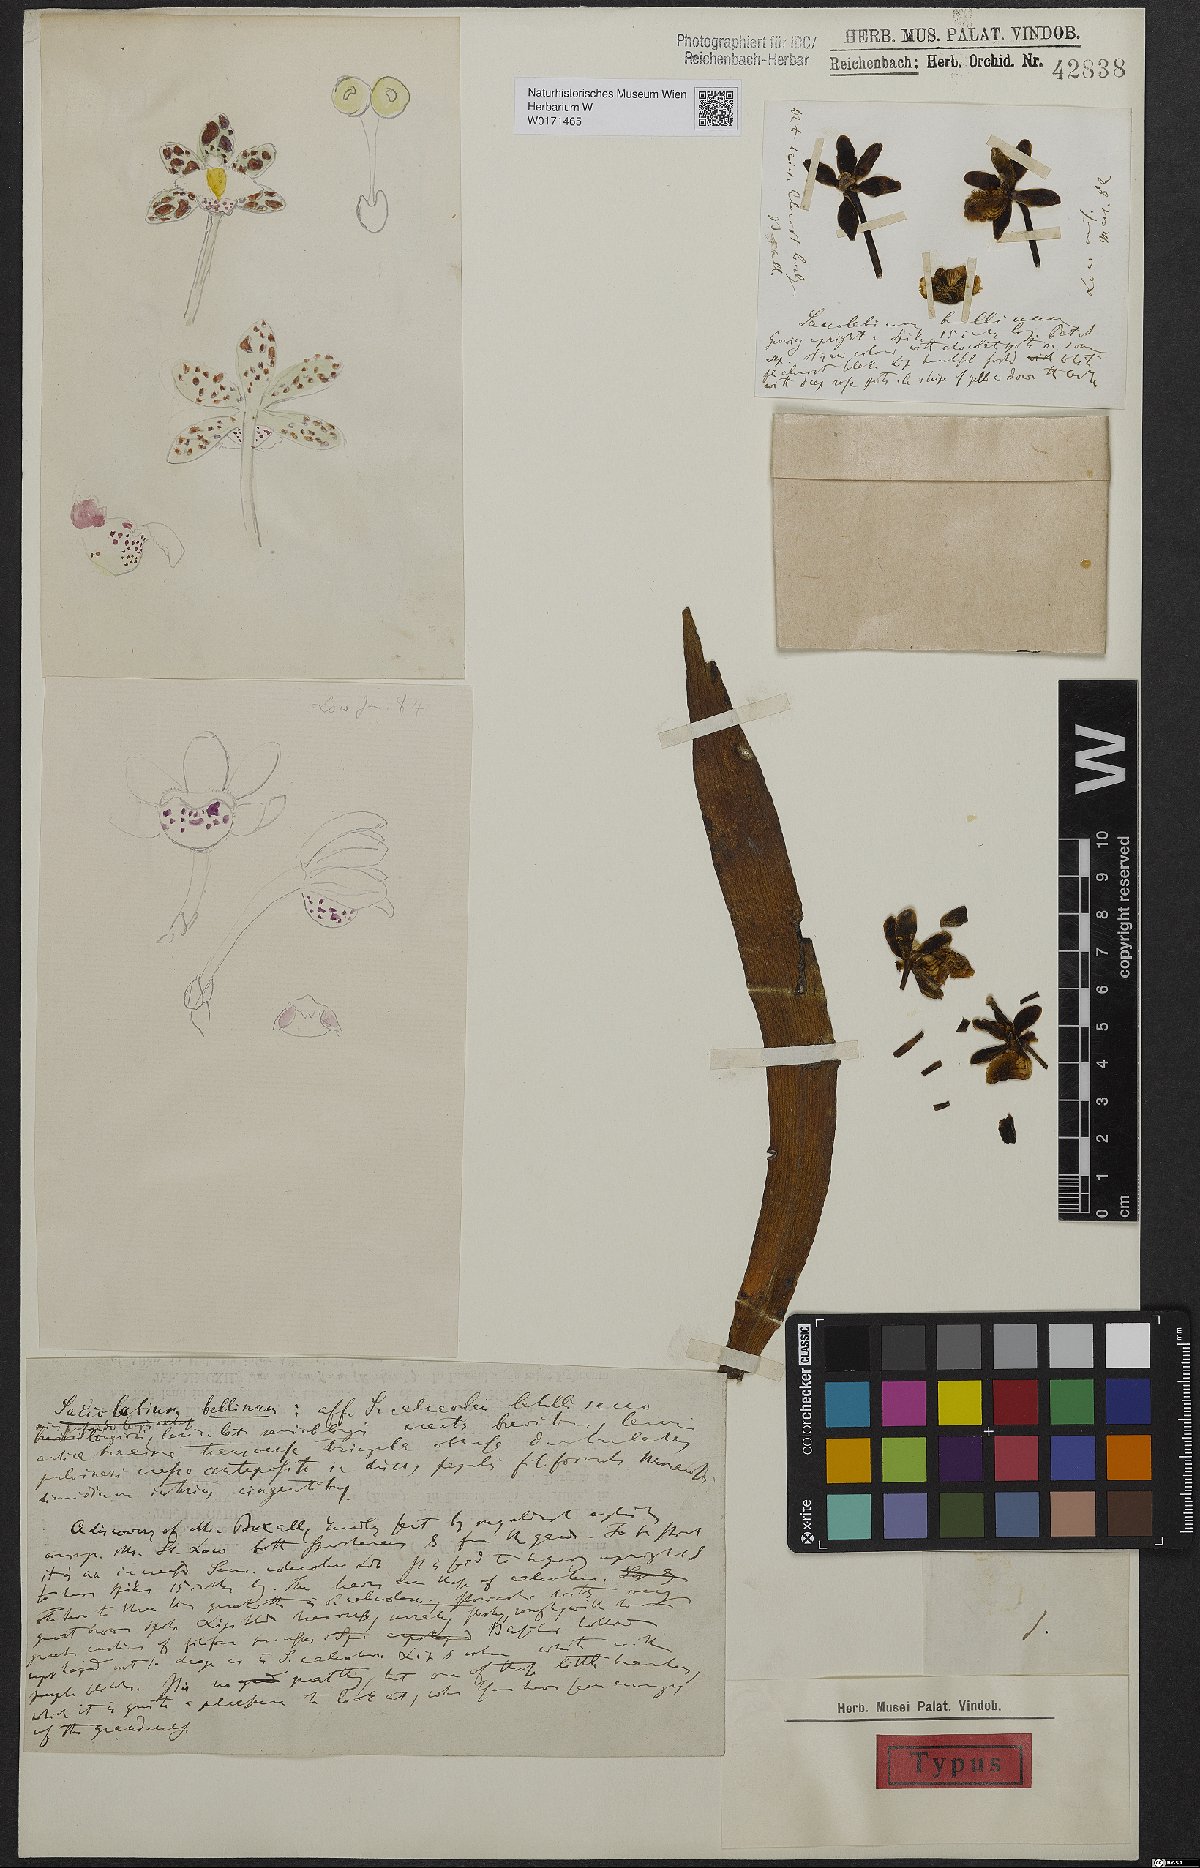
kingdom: Plantae
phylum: Tracheophyta
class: Liliopsida
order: Asparagales
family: Orchidaceae
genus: Gastrochilus
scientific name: Gastrochilus bellinus
